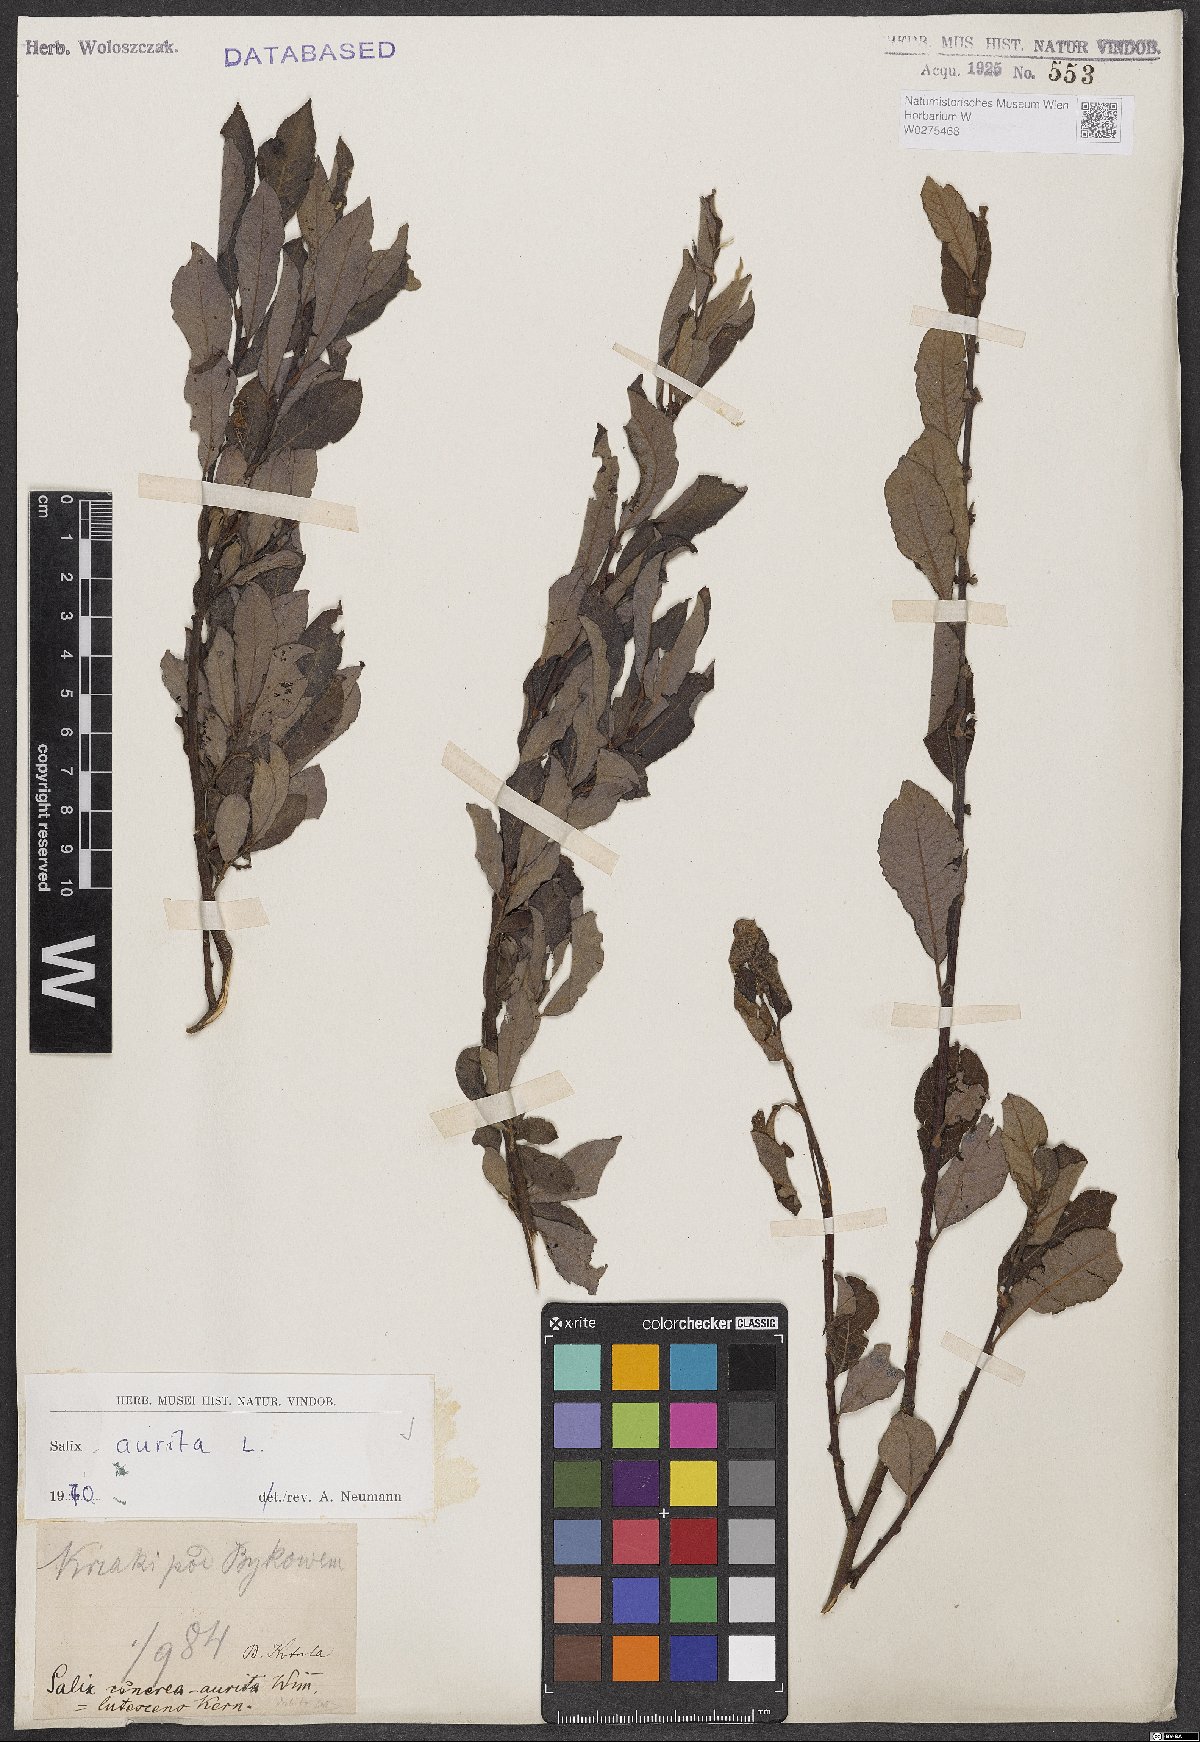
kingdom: Plantae
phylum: Tracheophyta
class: Magnoliopsida
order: Malpighiales
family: Salicaceae
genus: Salix
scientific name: Salix aurita
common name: Eared willow
